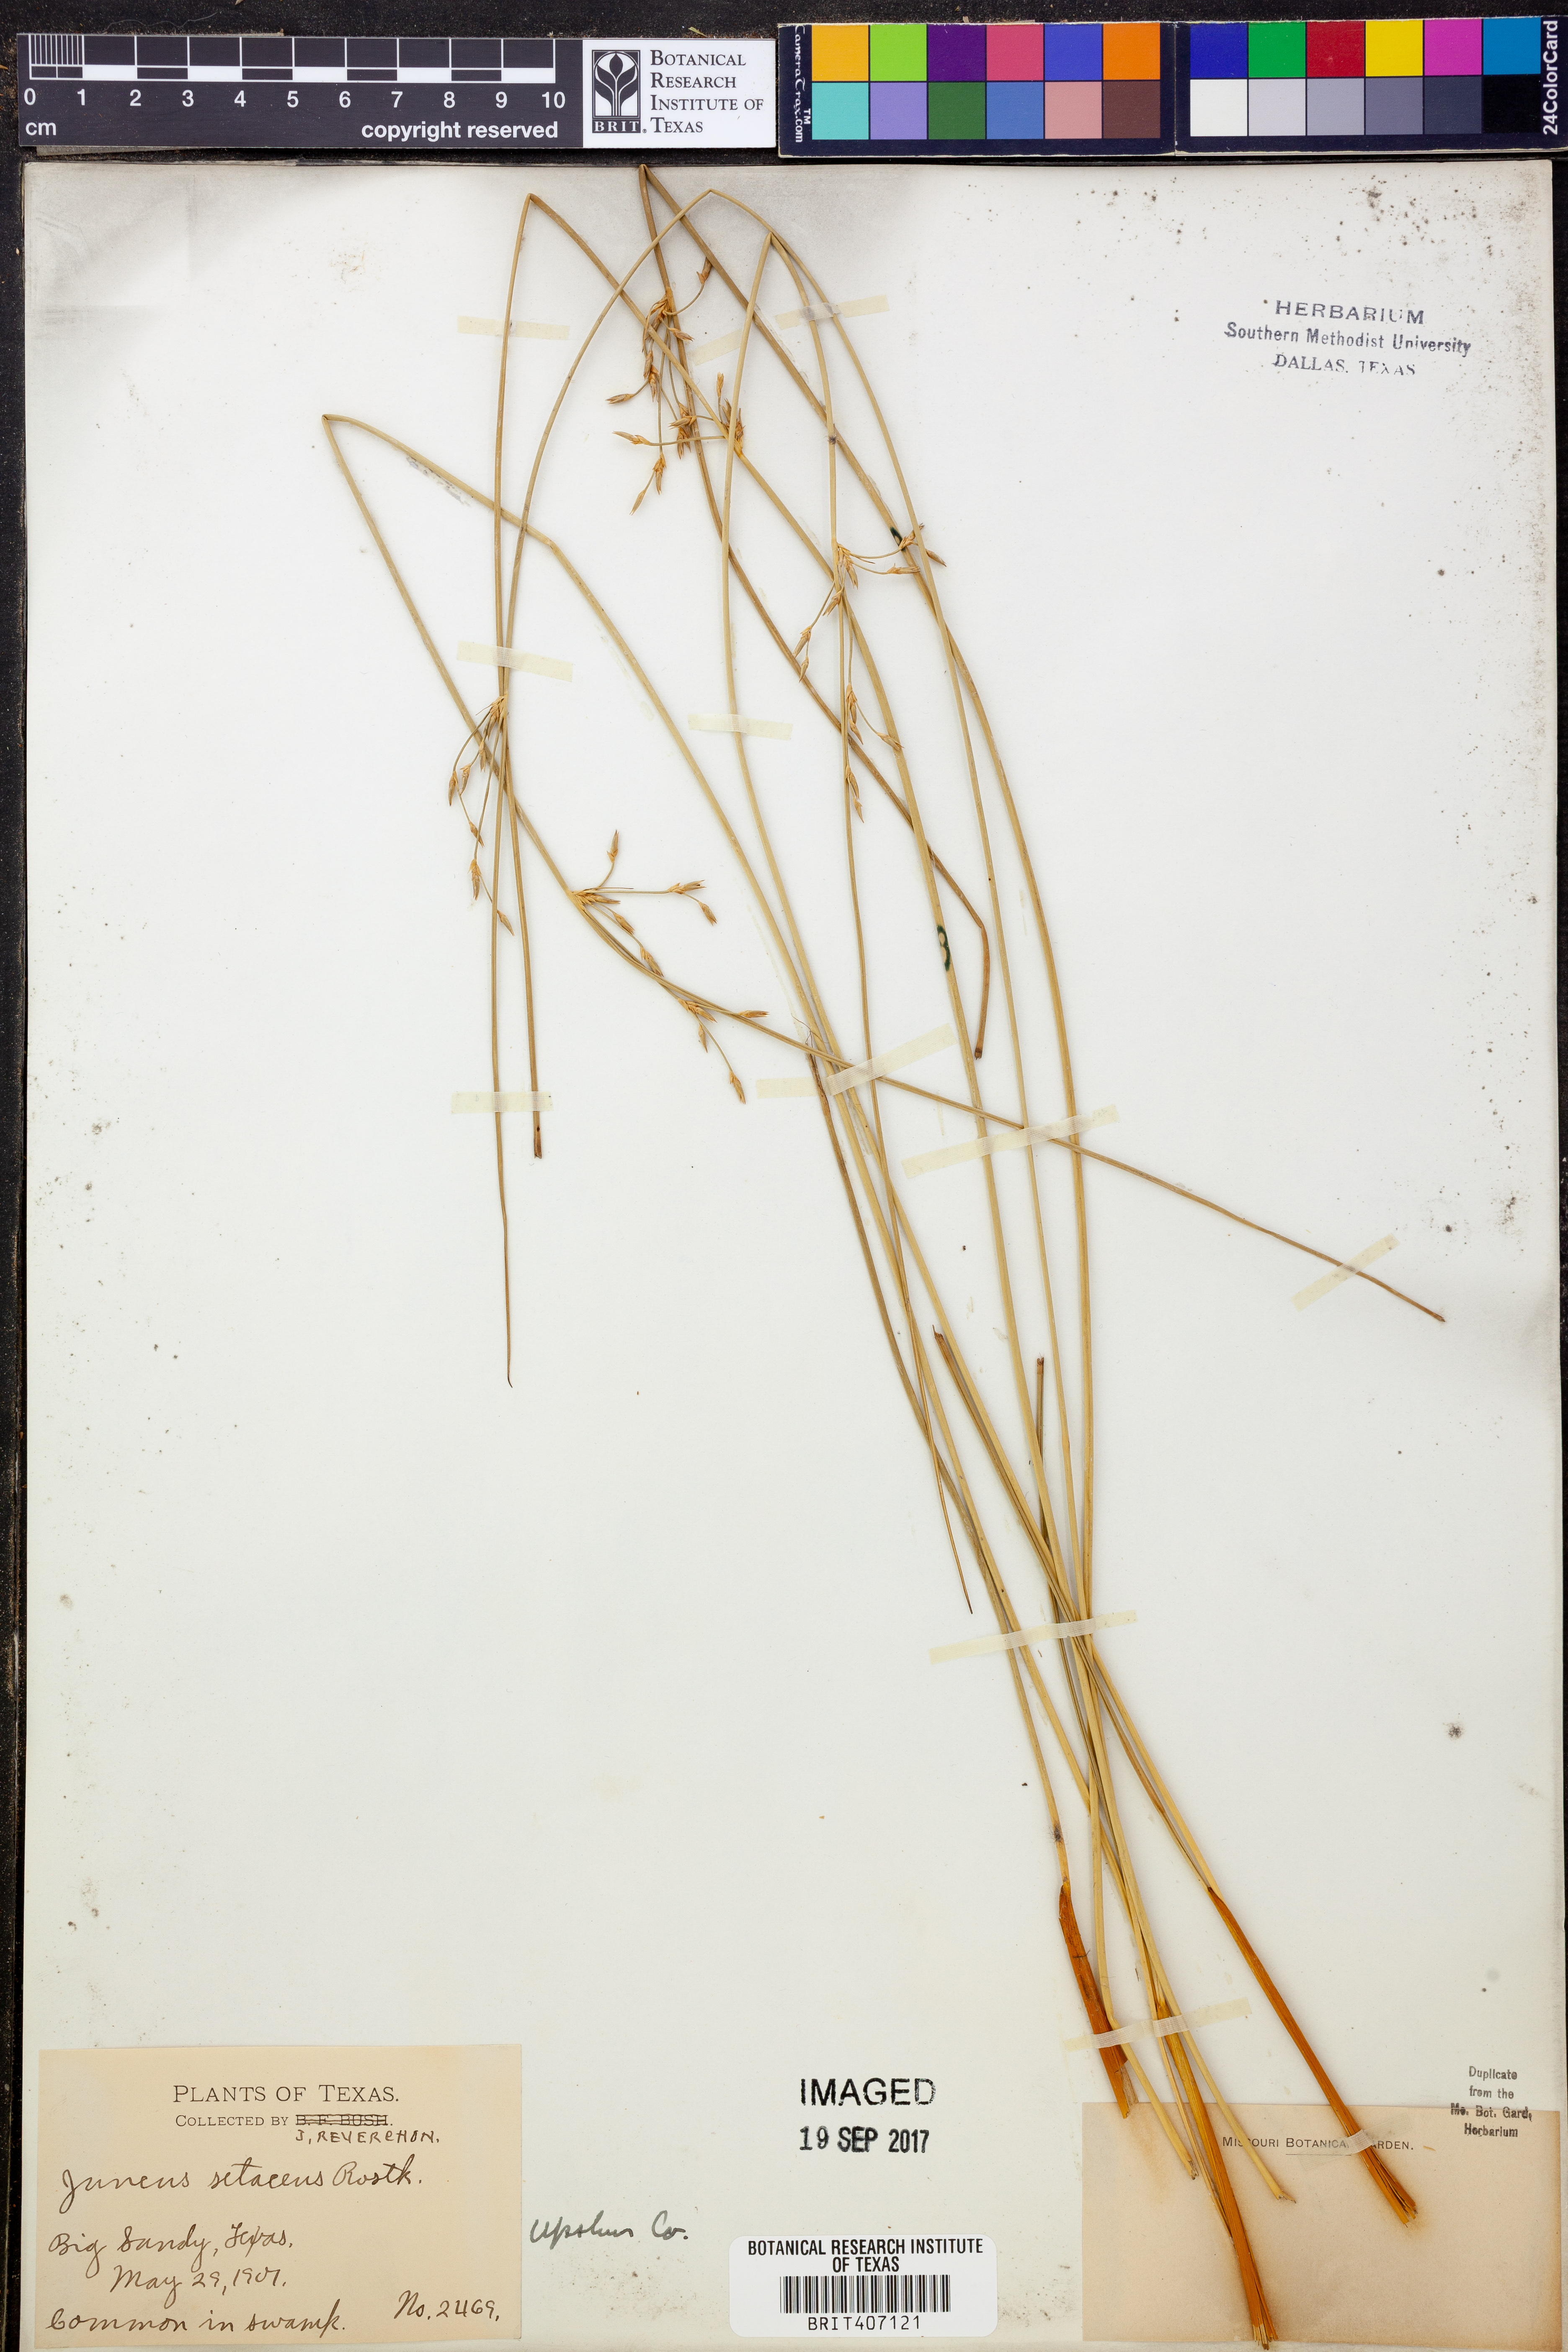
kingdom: Plantae
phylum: Tracheophyta
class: Liliopsida
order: Poales
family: Juncaceae
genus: Juncus
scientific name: Juncus bulbosus
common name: Bulbous rush
